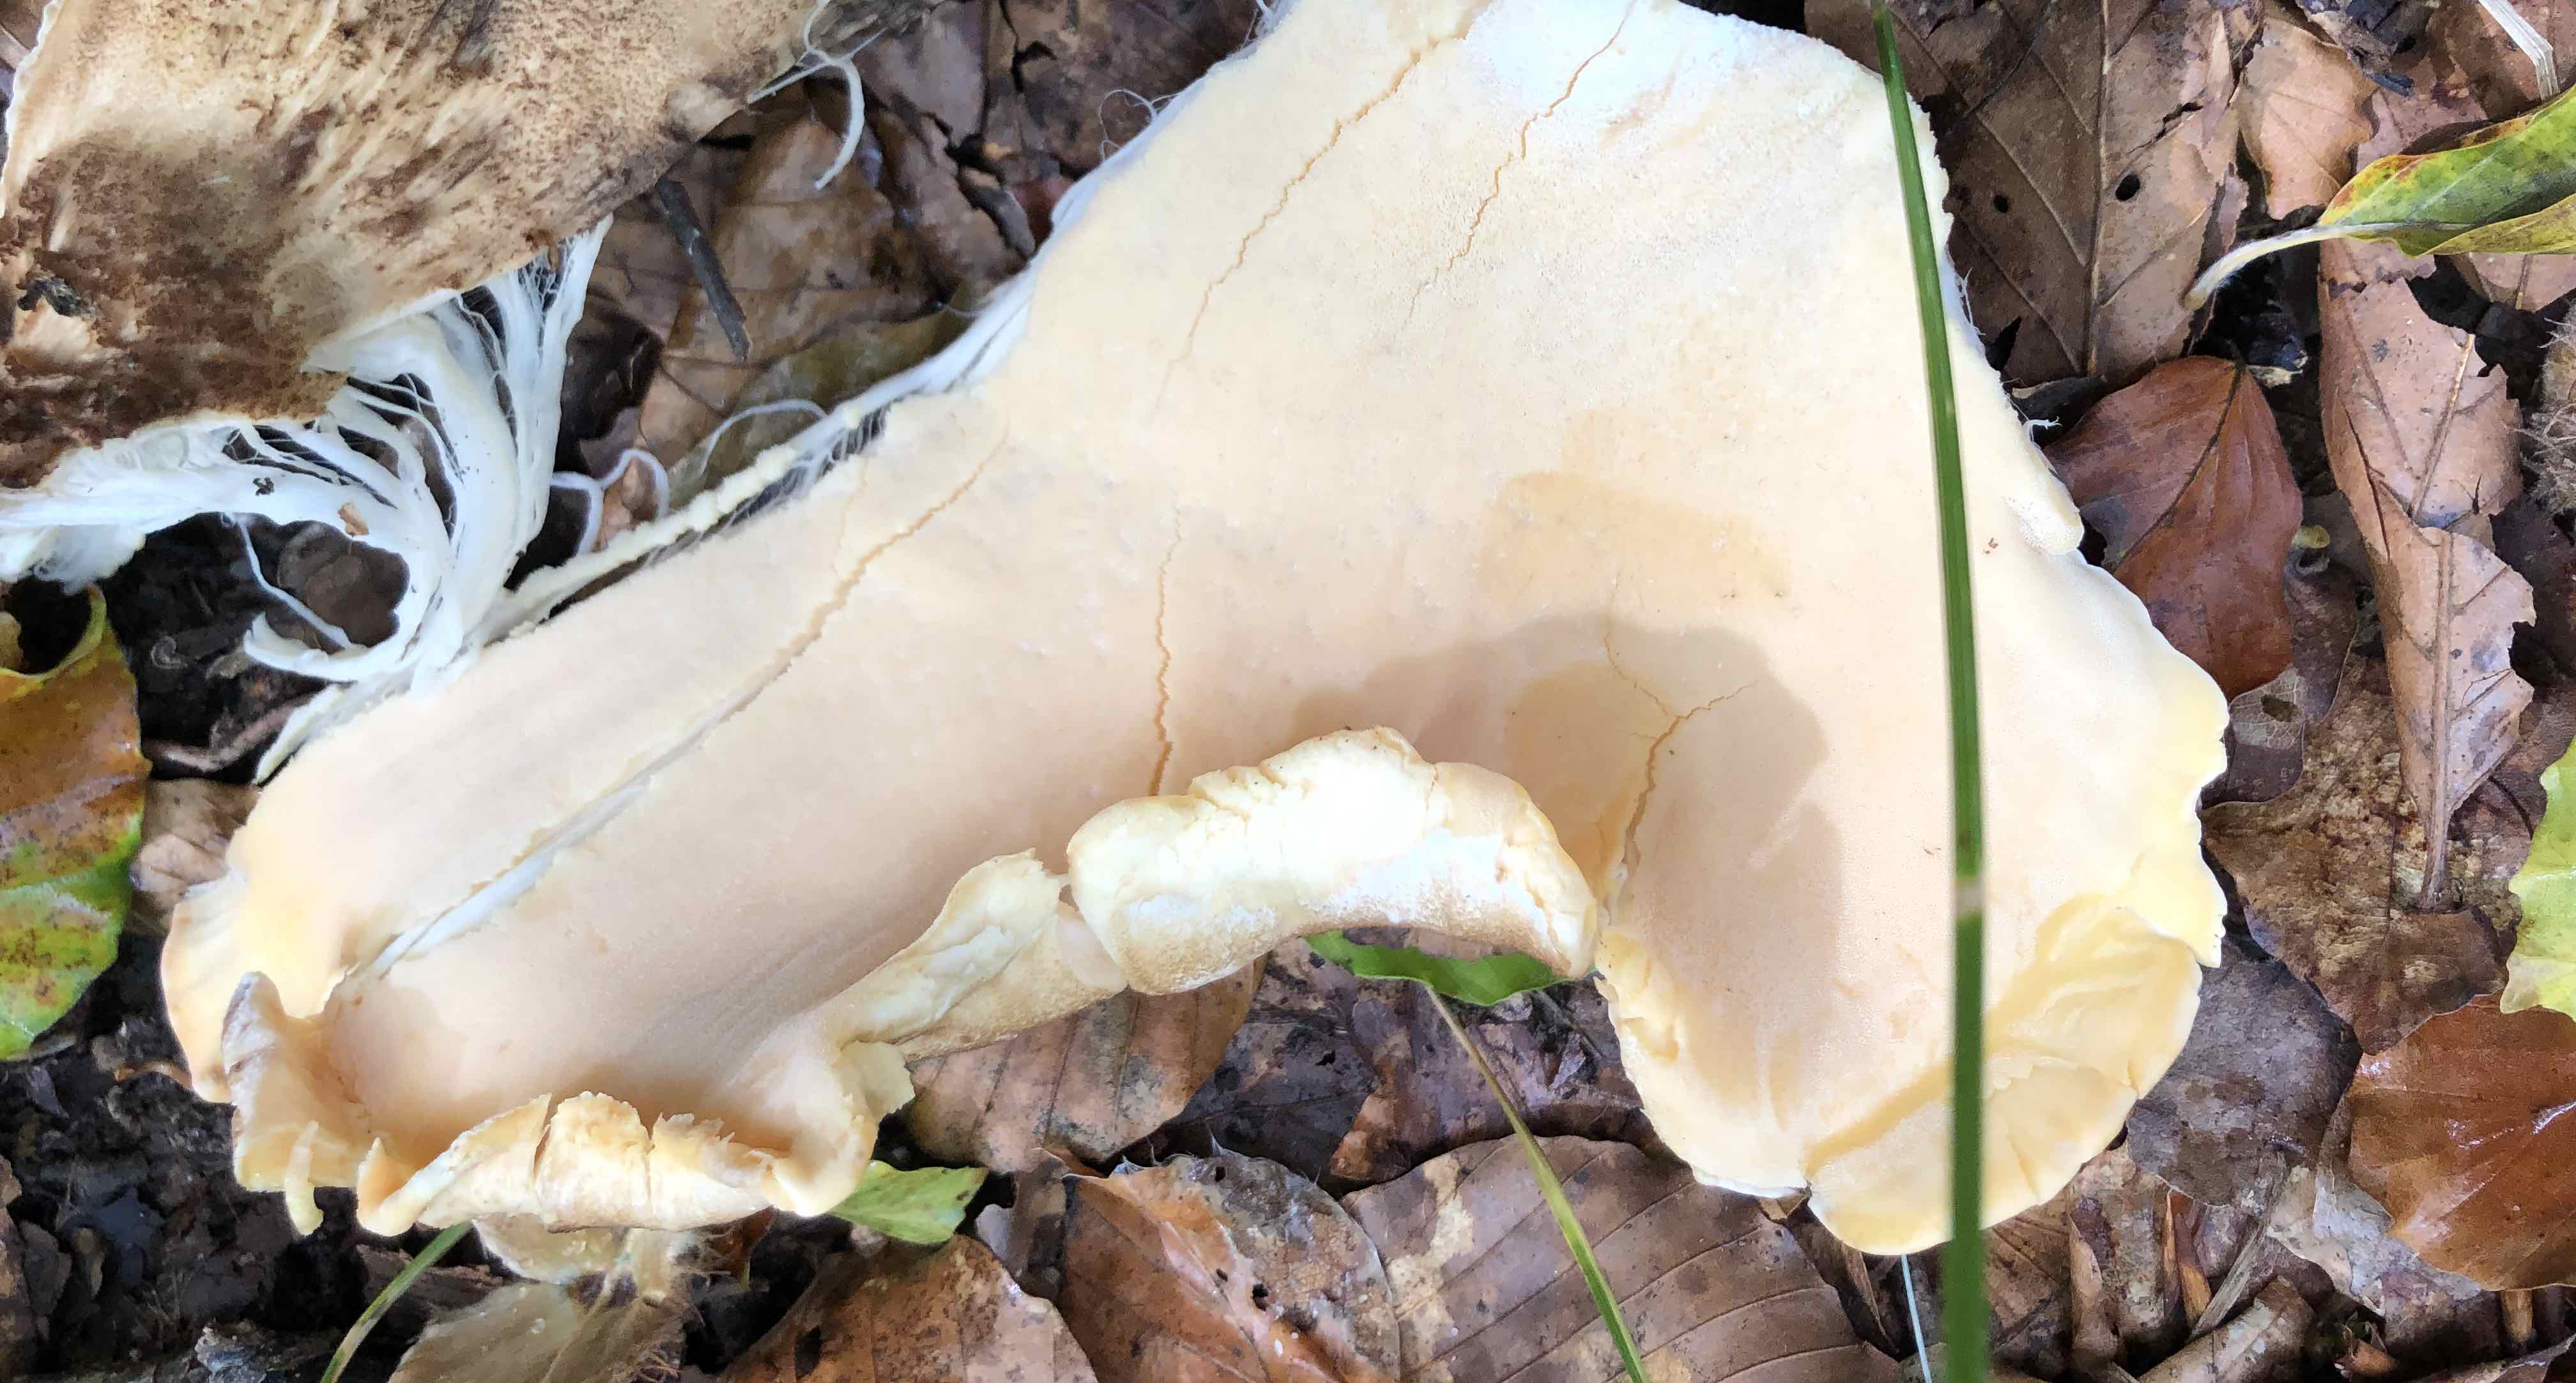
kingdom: Fungi
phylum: Basidiomycota
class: Agaricomycetes
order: Polyporales
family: Meripilaceae
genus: Meripilus
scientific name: Meripilus giganteus
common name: kæmpeporesvamp
